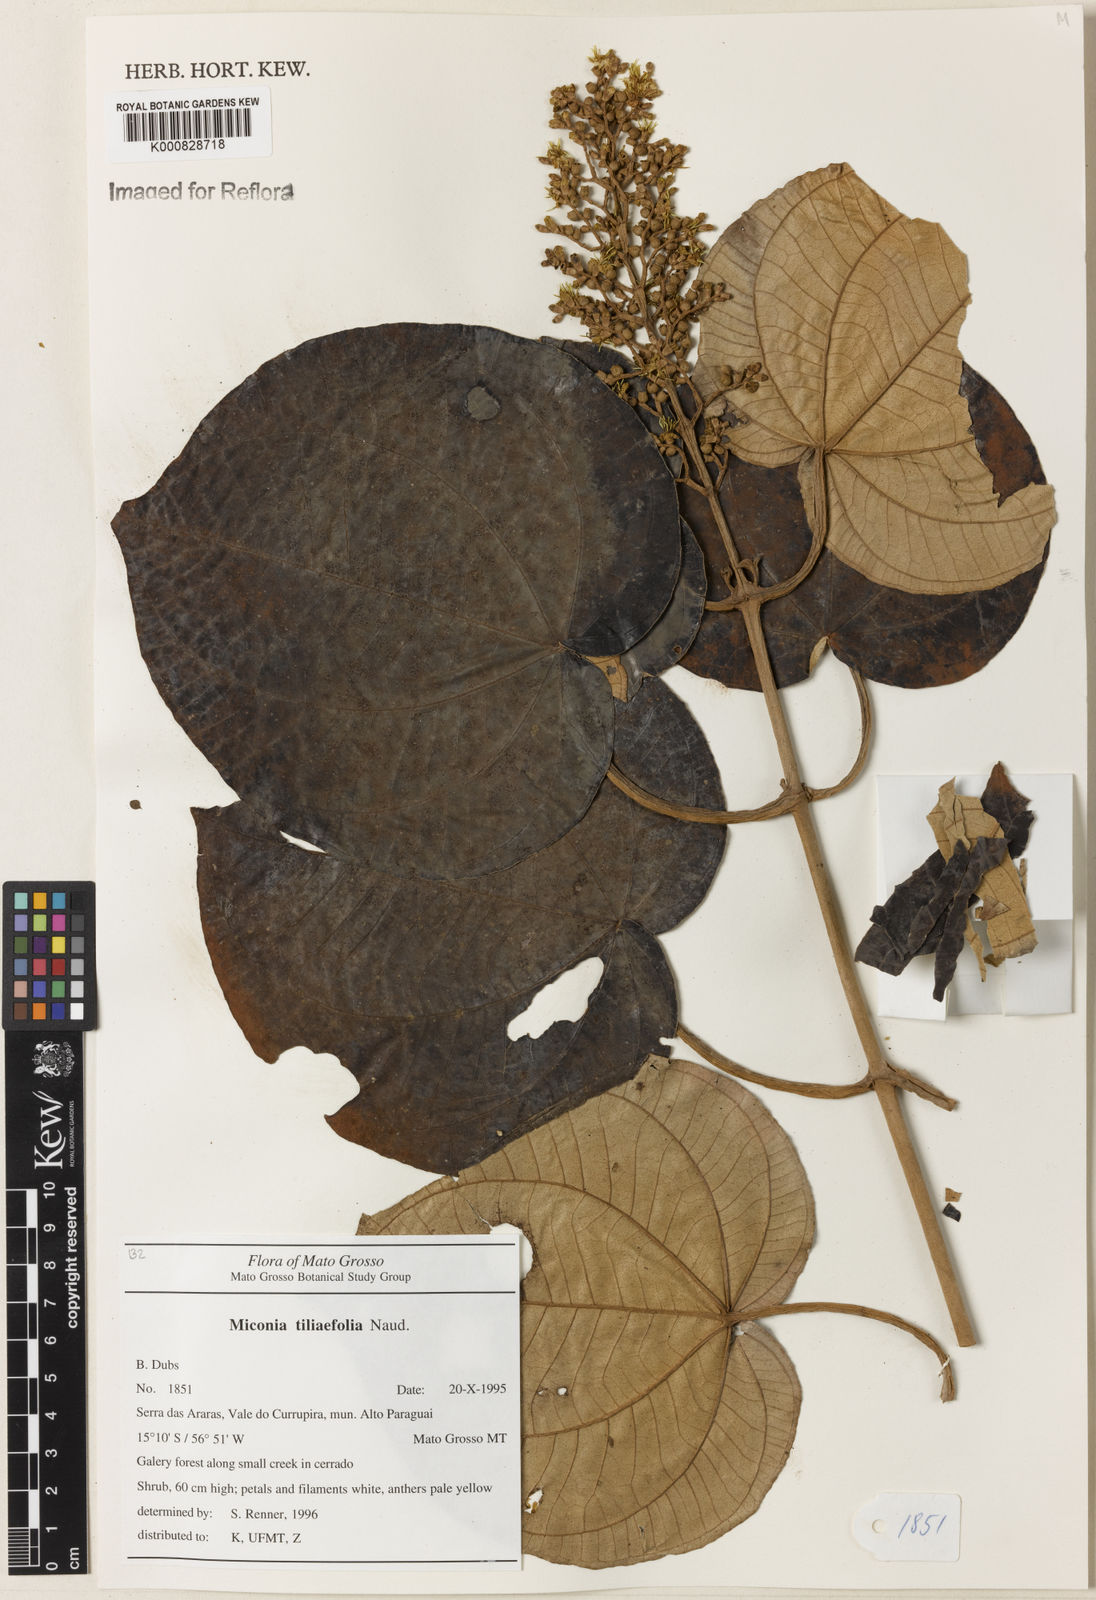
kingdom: Plantae
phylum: Tracheophyta
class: Magnoliopsida
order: Myrtales
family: Melastomataceae
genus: Miconia
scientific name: Miconia
